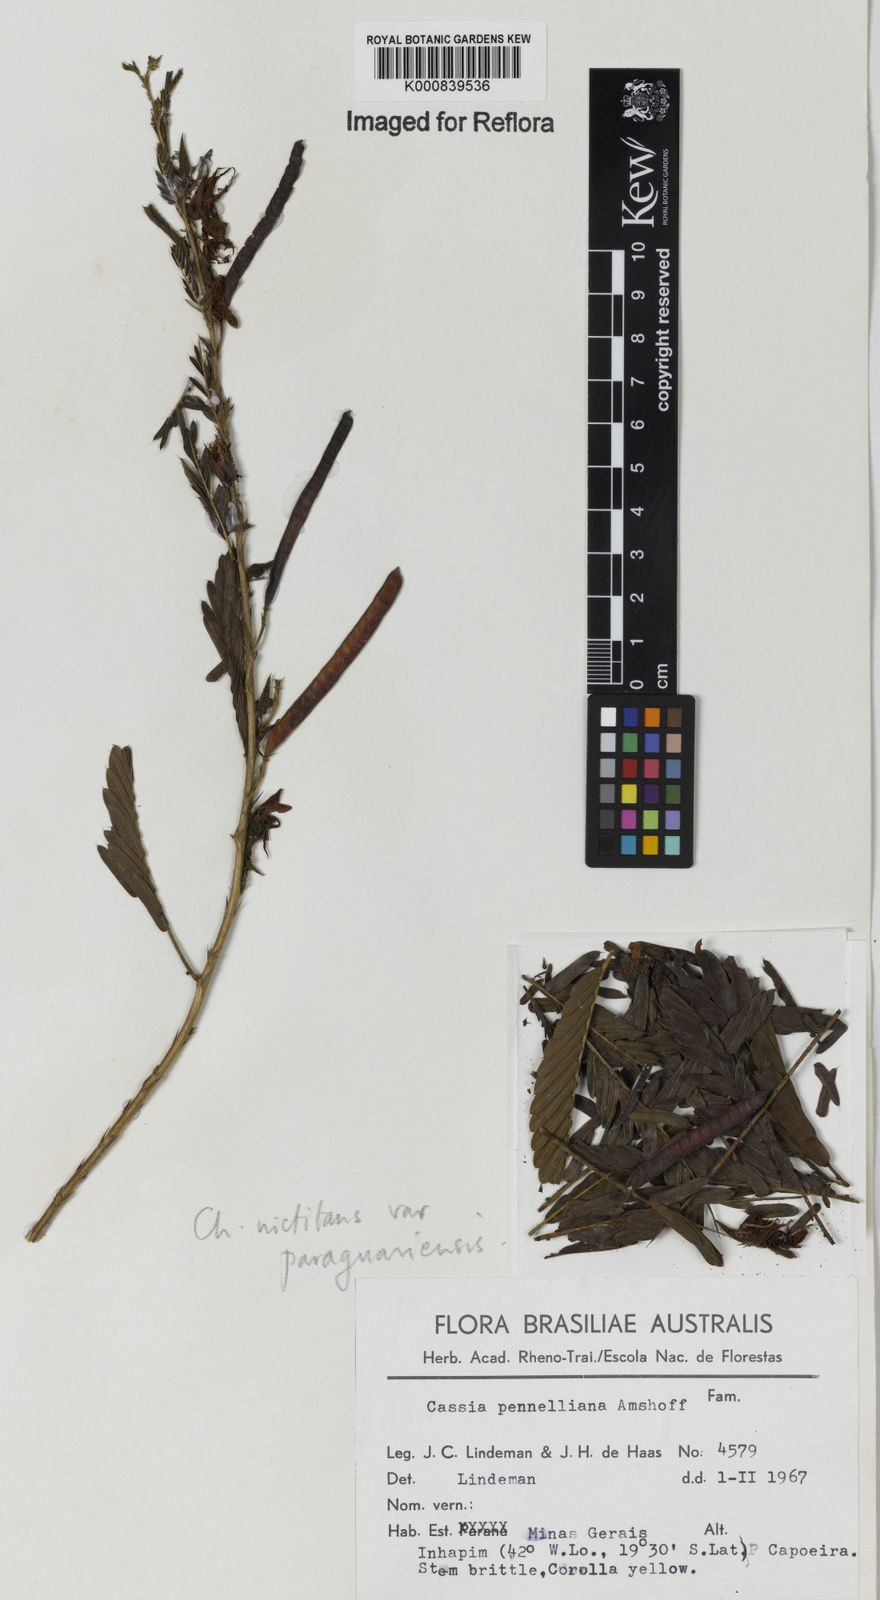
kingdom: Plantae
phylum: Tracheophyta
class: Magnoliopsida
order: Fabales
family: Fabaceae
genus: Chamaecrista
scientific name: Chamaecrista nictitans
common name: Sensitive cassia
